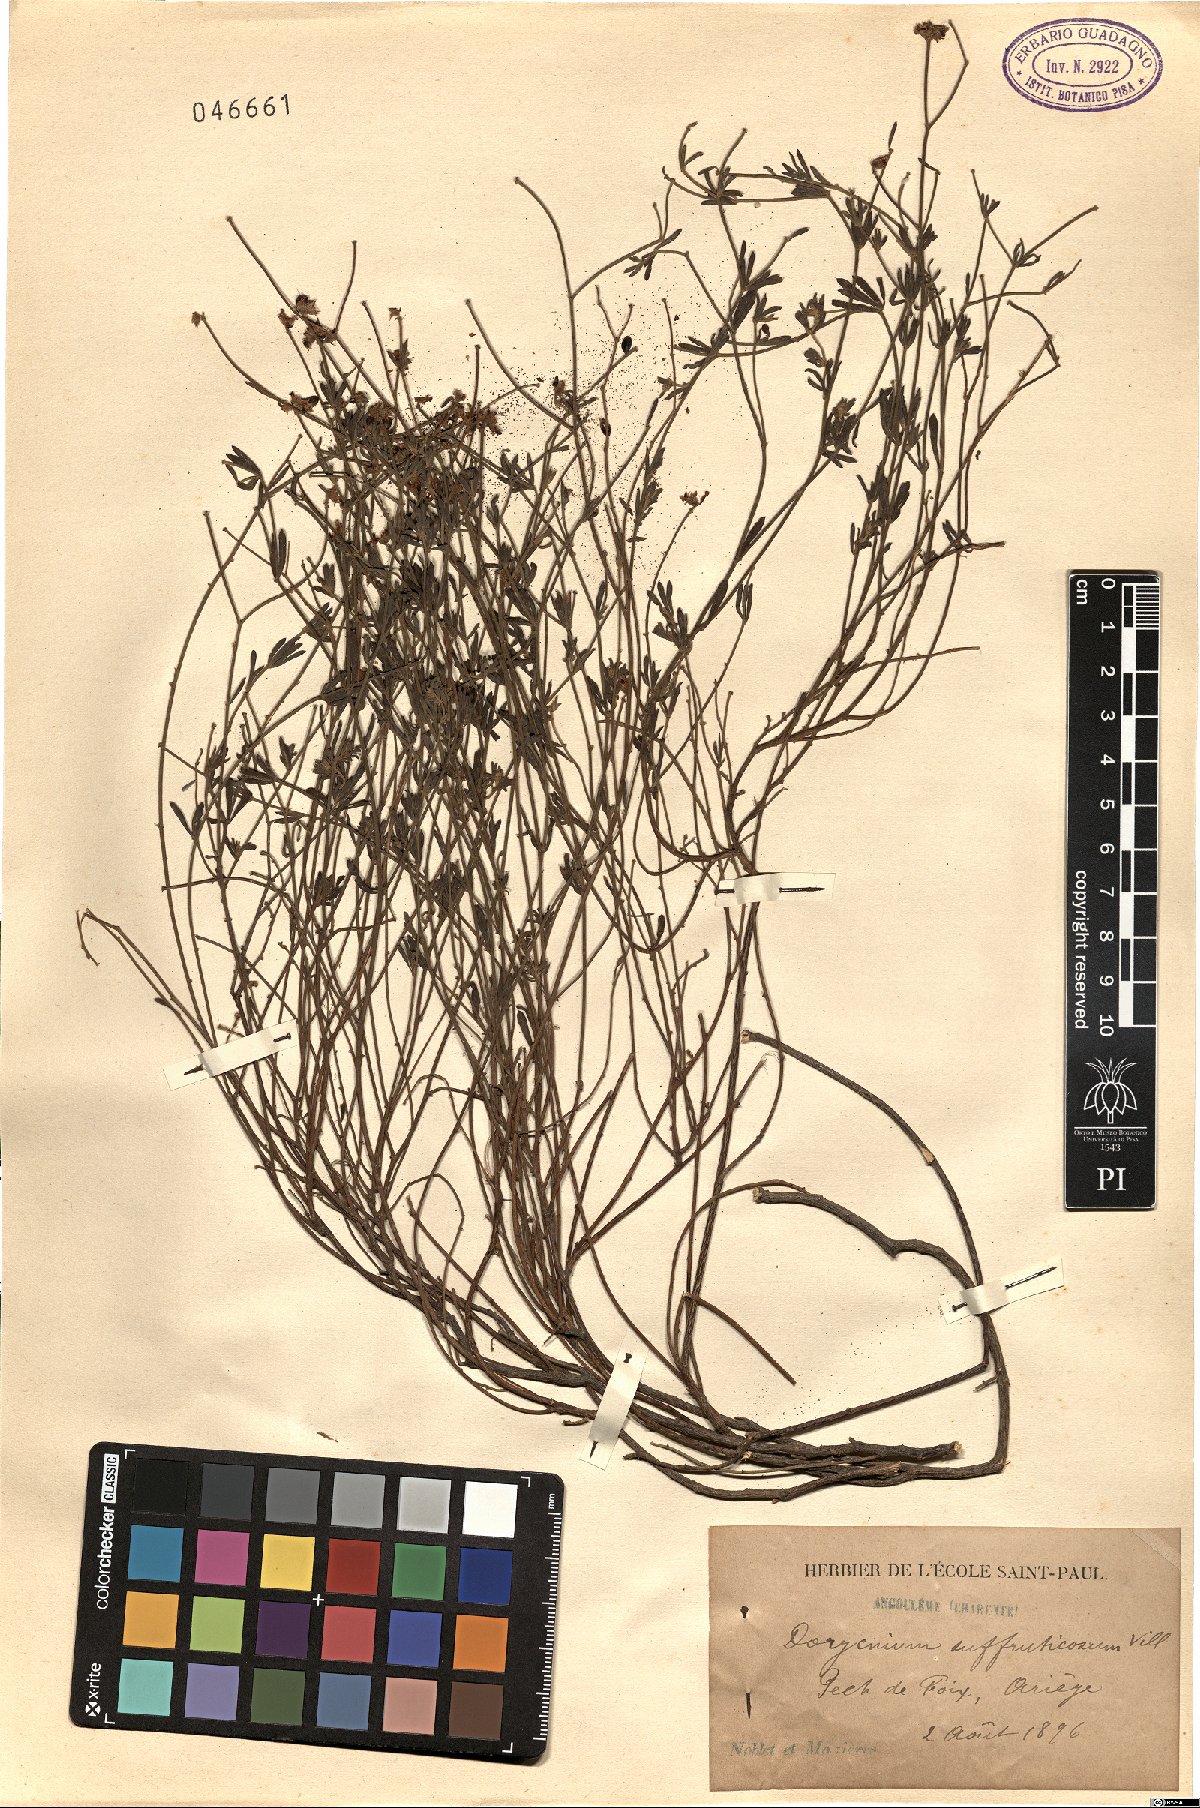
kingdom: Plantae
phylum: Tracheophyta
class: Magnoliopsida
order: Fabales
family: Fabaceae
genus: Lotus
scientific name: Lotus dorycnium
